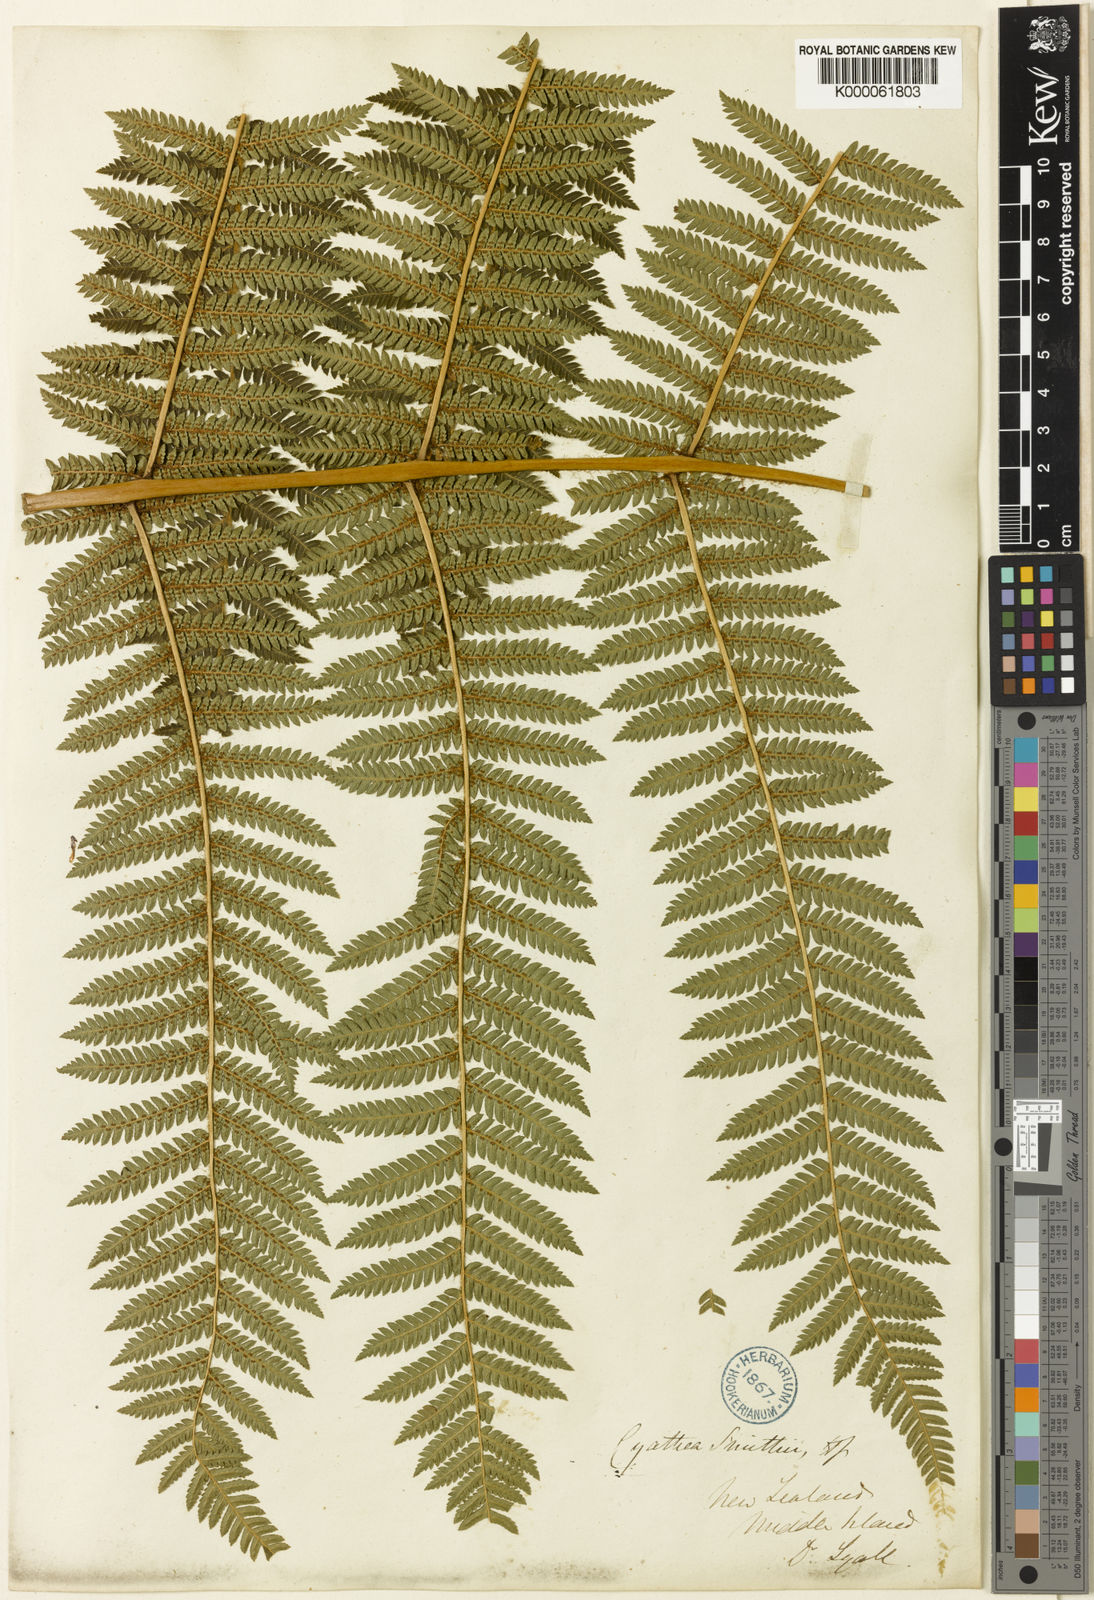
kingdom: Plantae
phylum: Tracheophyta
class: Polypodiopsida
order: Cyatheales
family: Cyatheaceae
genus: Alsophila
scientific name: Alsophila smithii
